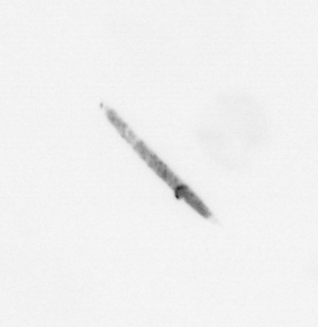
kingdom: Chromista
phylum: Ochrophyta
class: Bacillariophyceae
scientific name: Bacillariophyceae
